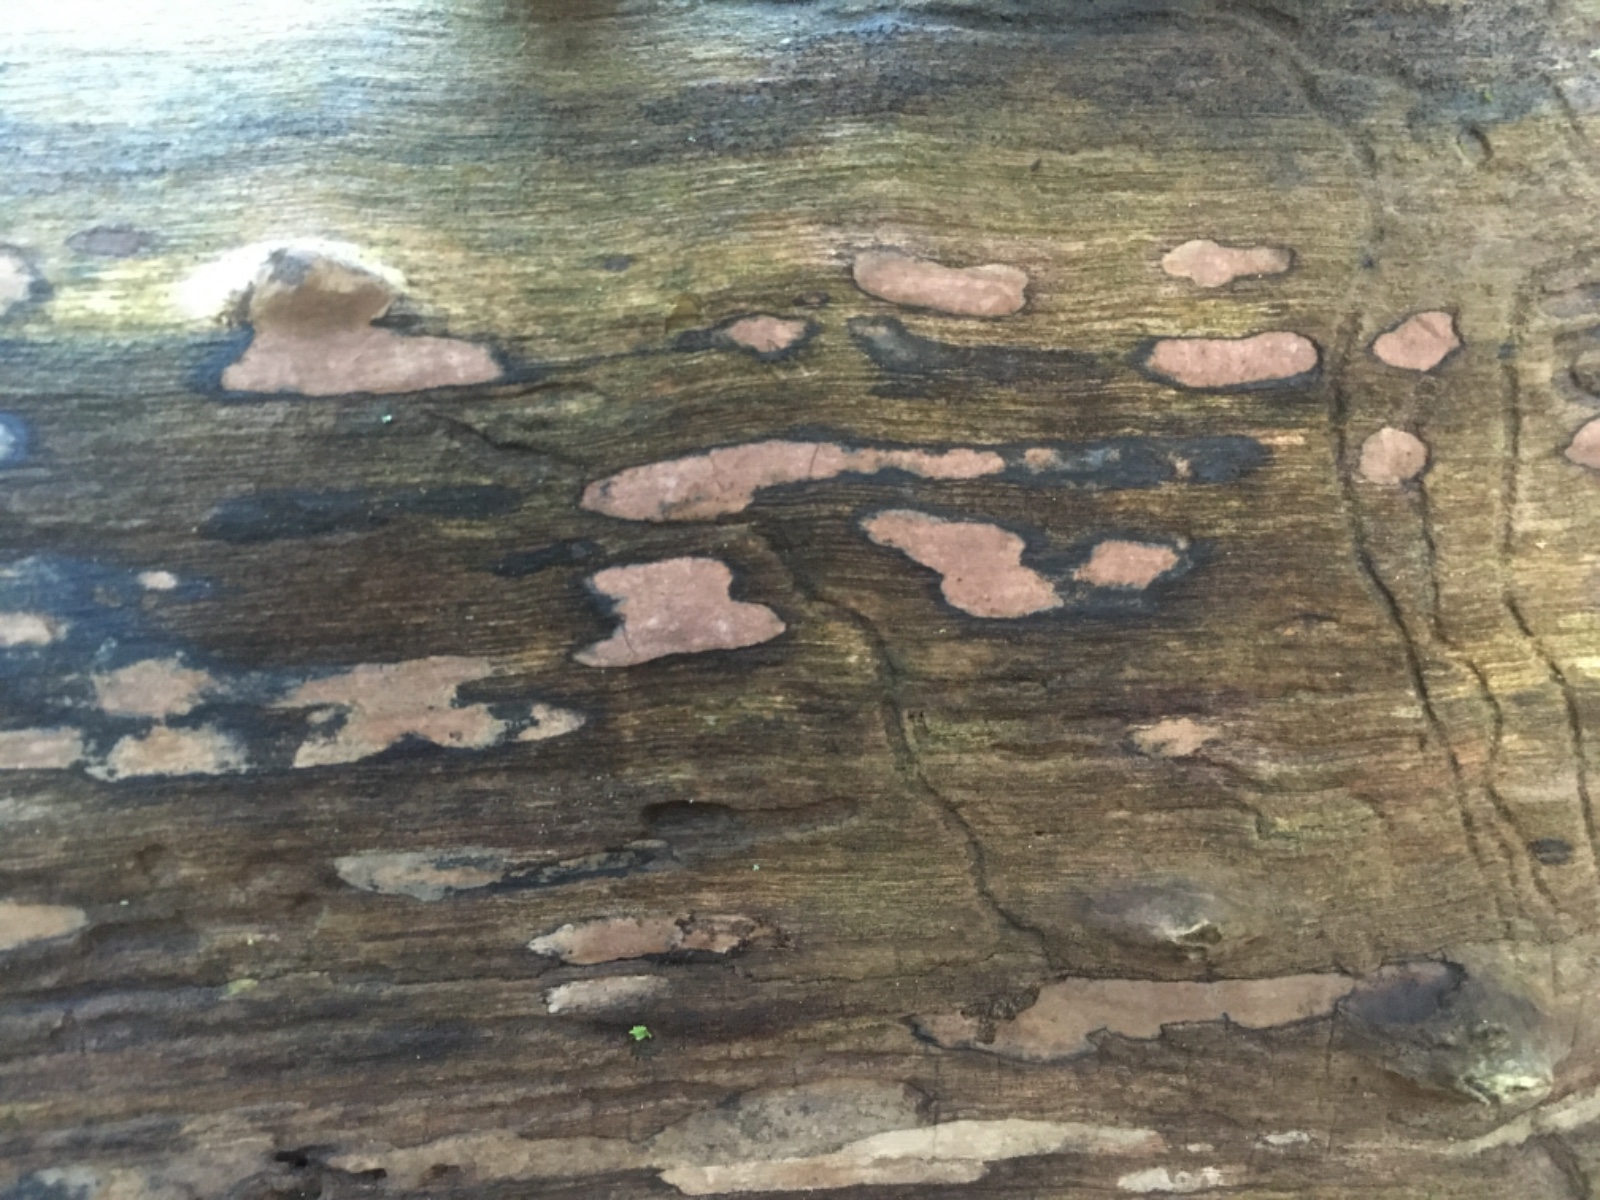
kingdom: Fungi
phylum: Ascomycota
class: Sordariomycetes
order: Xylariales
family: Hypoxylaceae
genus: Hypoxylon
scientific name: Hypoxylon petriniae
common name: nedsænket kulbær
